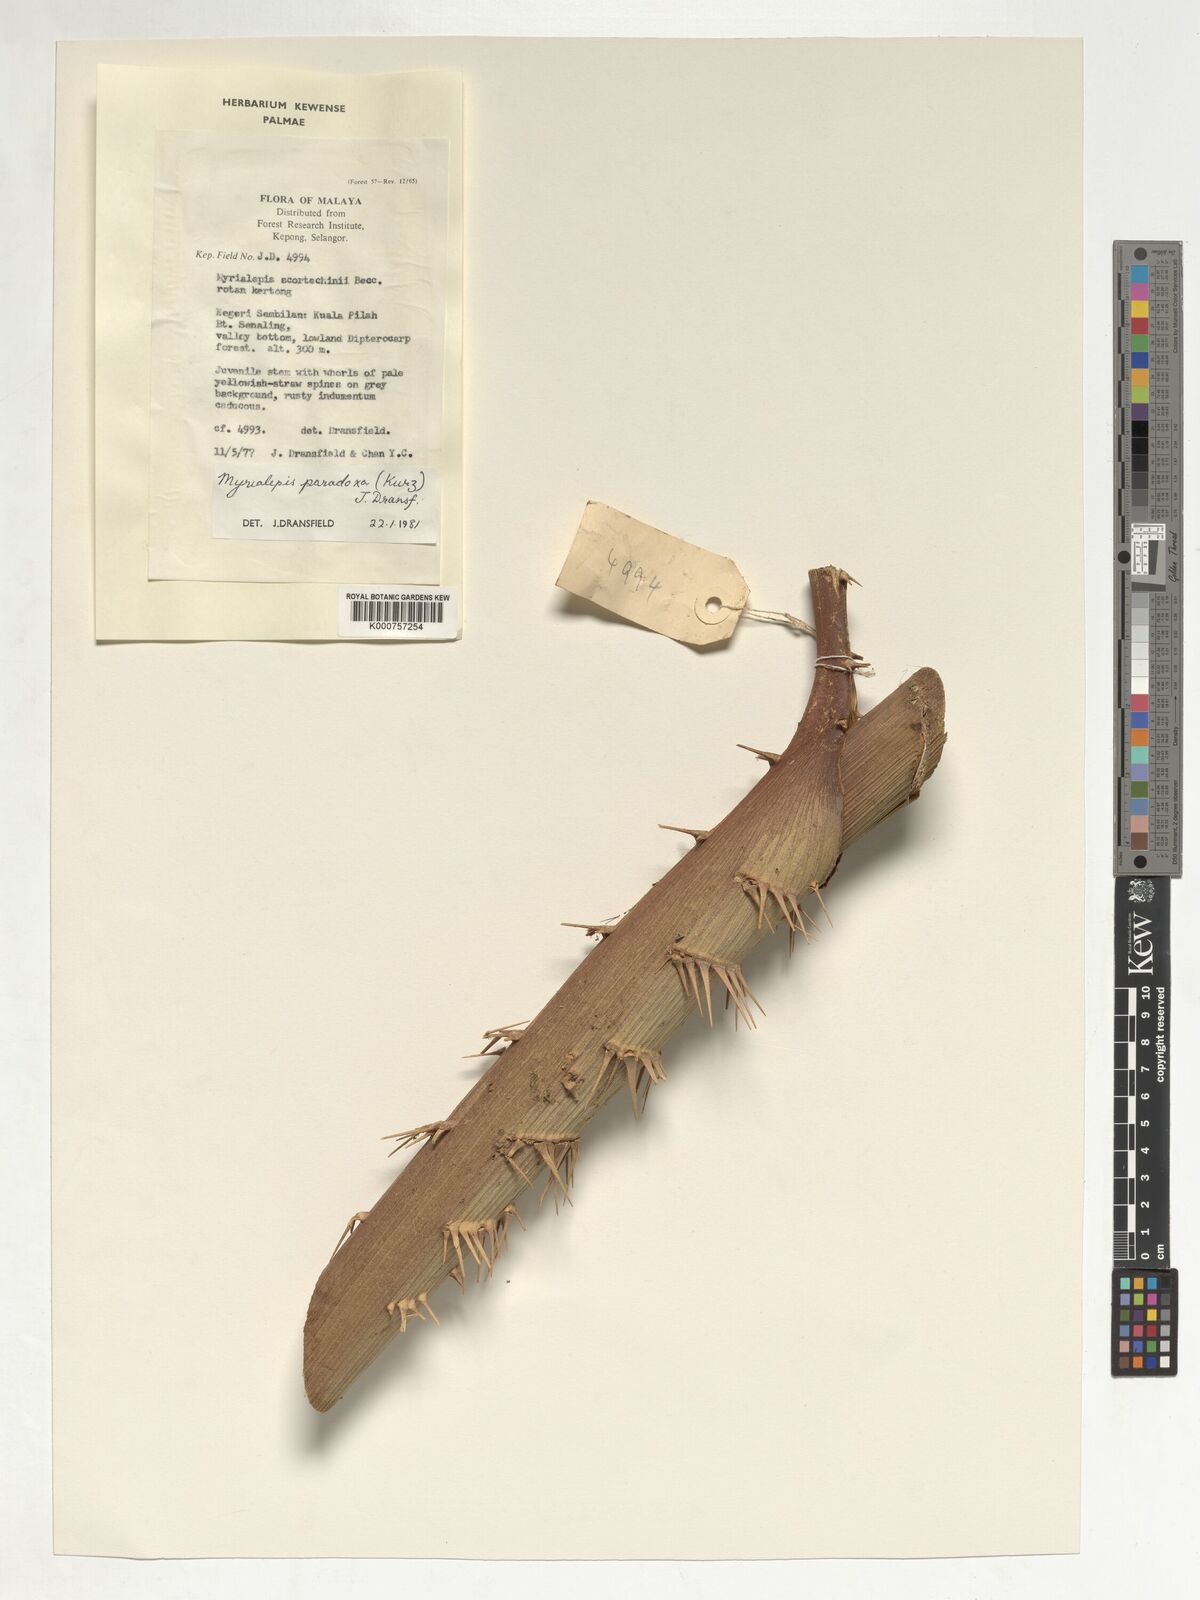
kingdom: Plantae
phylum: Tracheophyta
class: Liliopsida
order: Arecales
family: Arecaceae
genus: Myrialepis
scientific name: Myrialepis paradoxa
